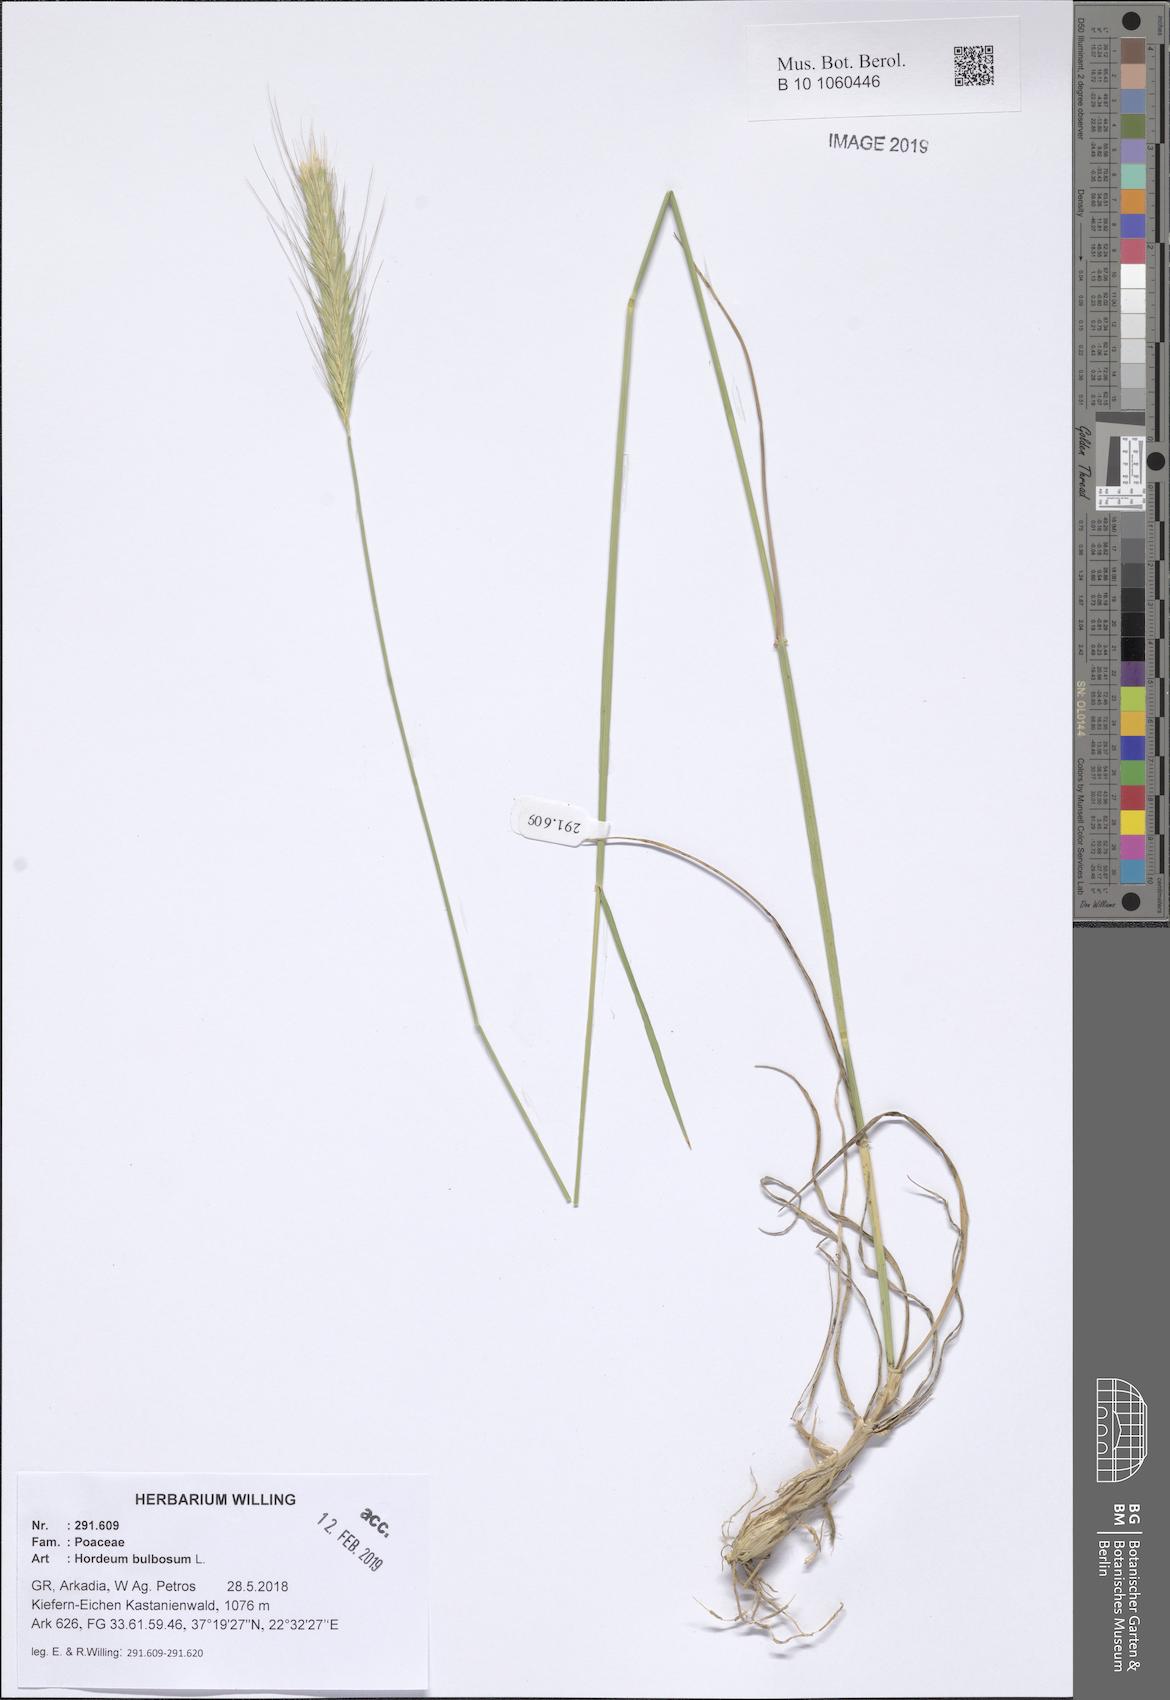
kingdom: Plantae
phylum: Tracheophyta
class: Liliopsida
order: Poales
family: Poaceae
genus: Hordeum
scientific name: Hordeum bulbosum
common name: Bulbous barley
